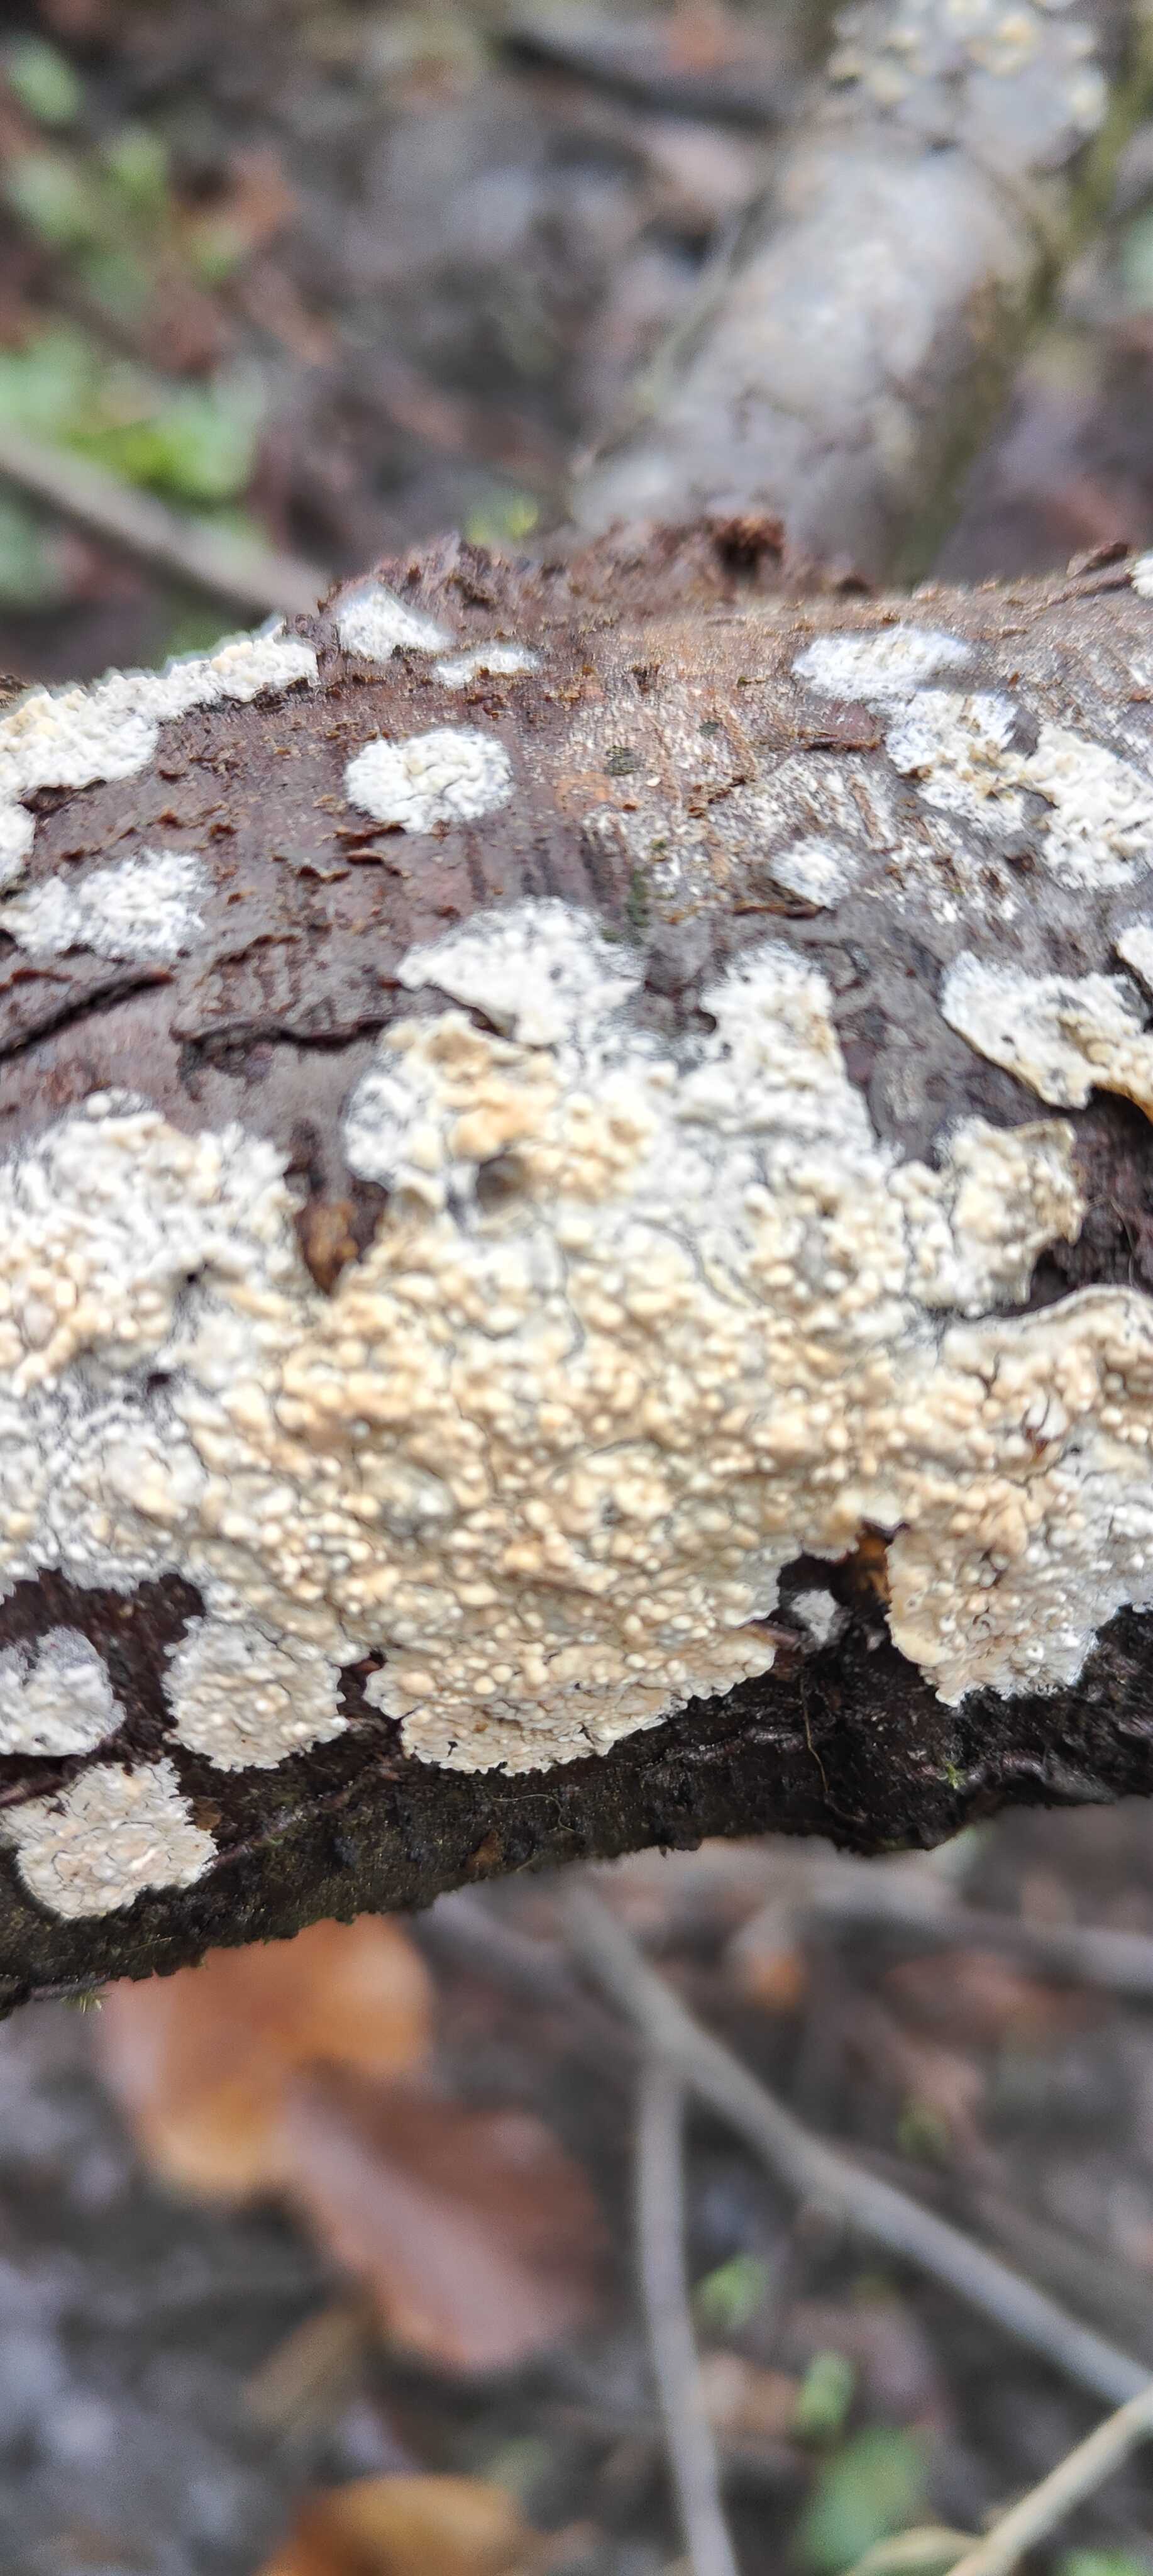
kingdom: Fungi
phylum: Basidiomycota
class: Agaricomycetes
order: Hymenochaetales
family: Schizoporaceae
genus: Xylodon
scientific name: Xylodon radula
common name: grovtandet kalkskind
